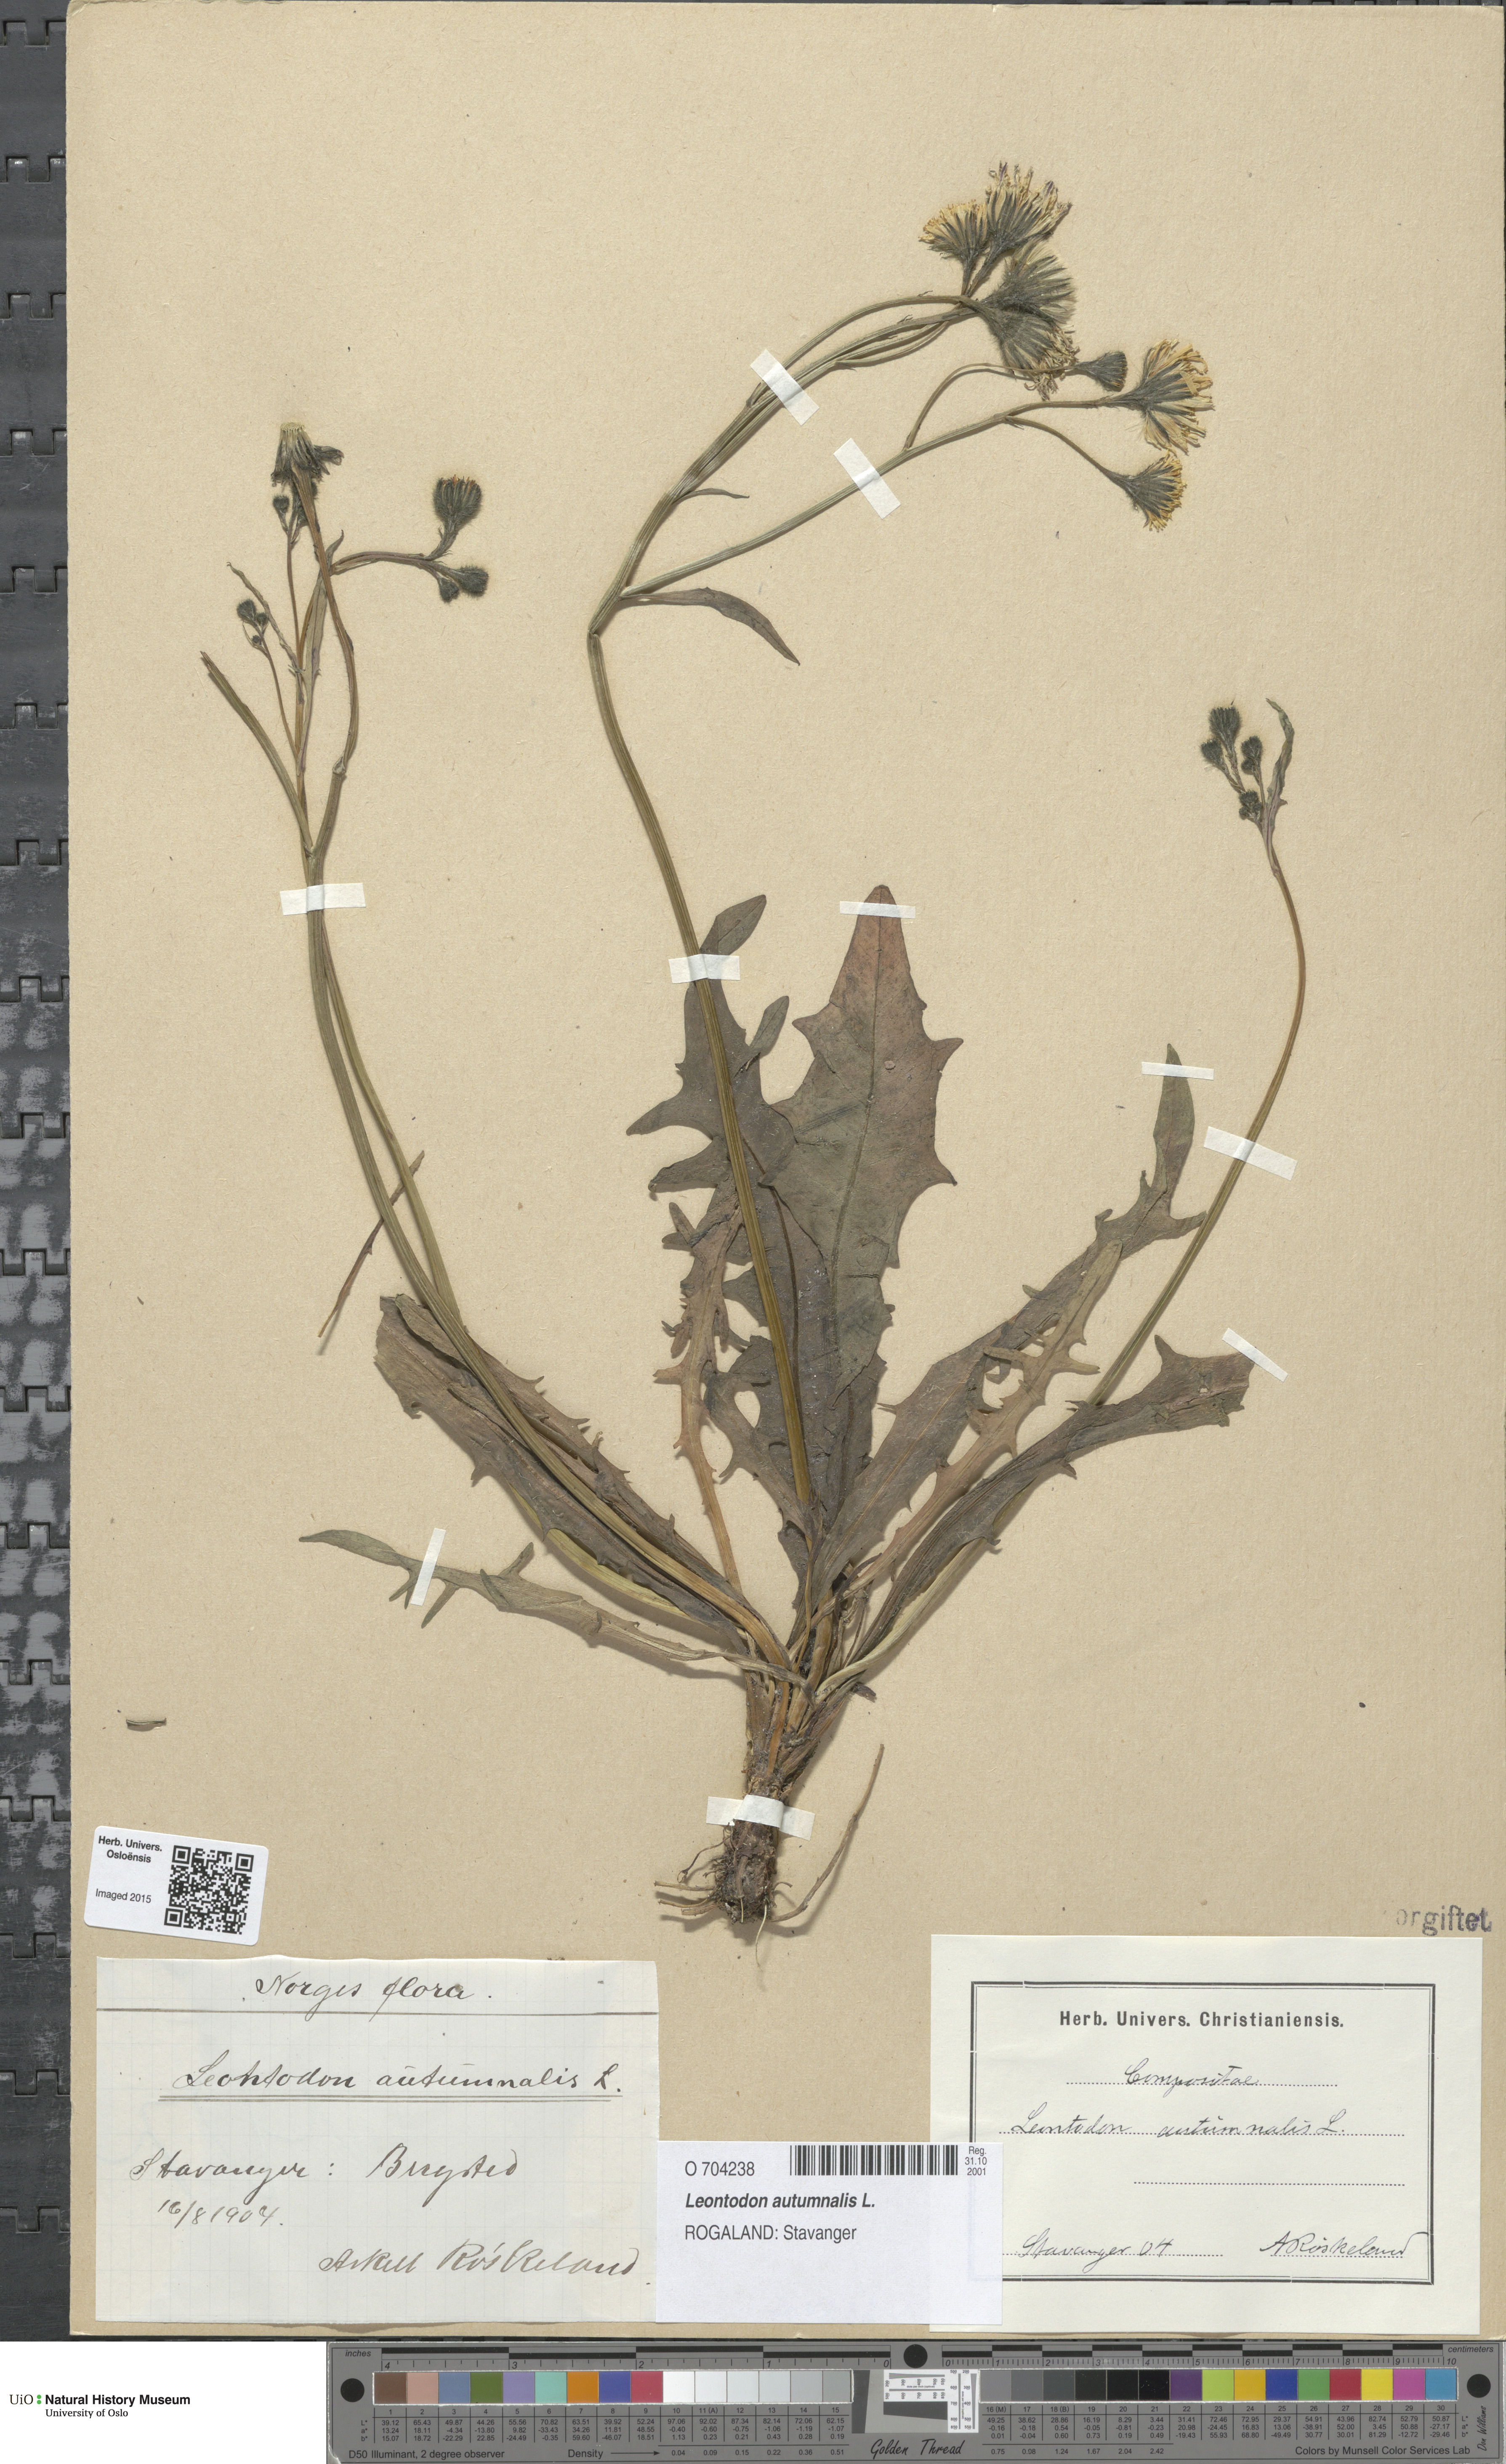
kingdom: Plantae
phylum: Tracheophyta
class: Magnoliopsida
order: Asterales
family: Asteraceae
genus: Scorzoneroides
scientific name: Scorzoneroides autumnalis
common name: Autumn hawkbit
